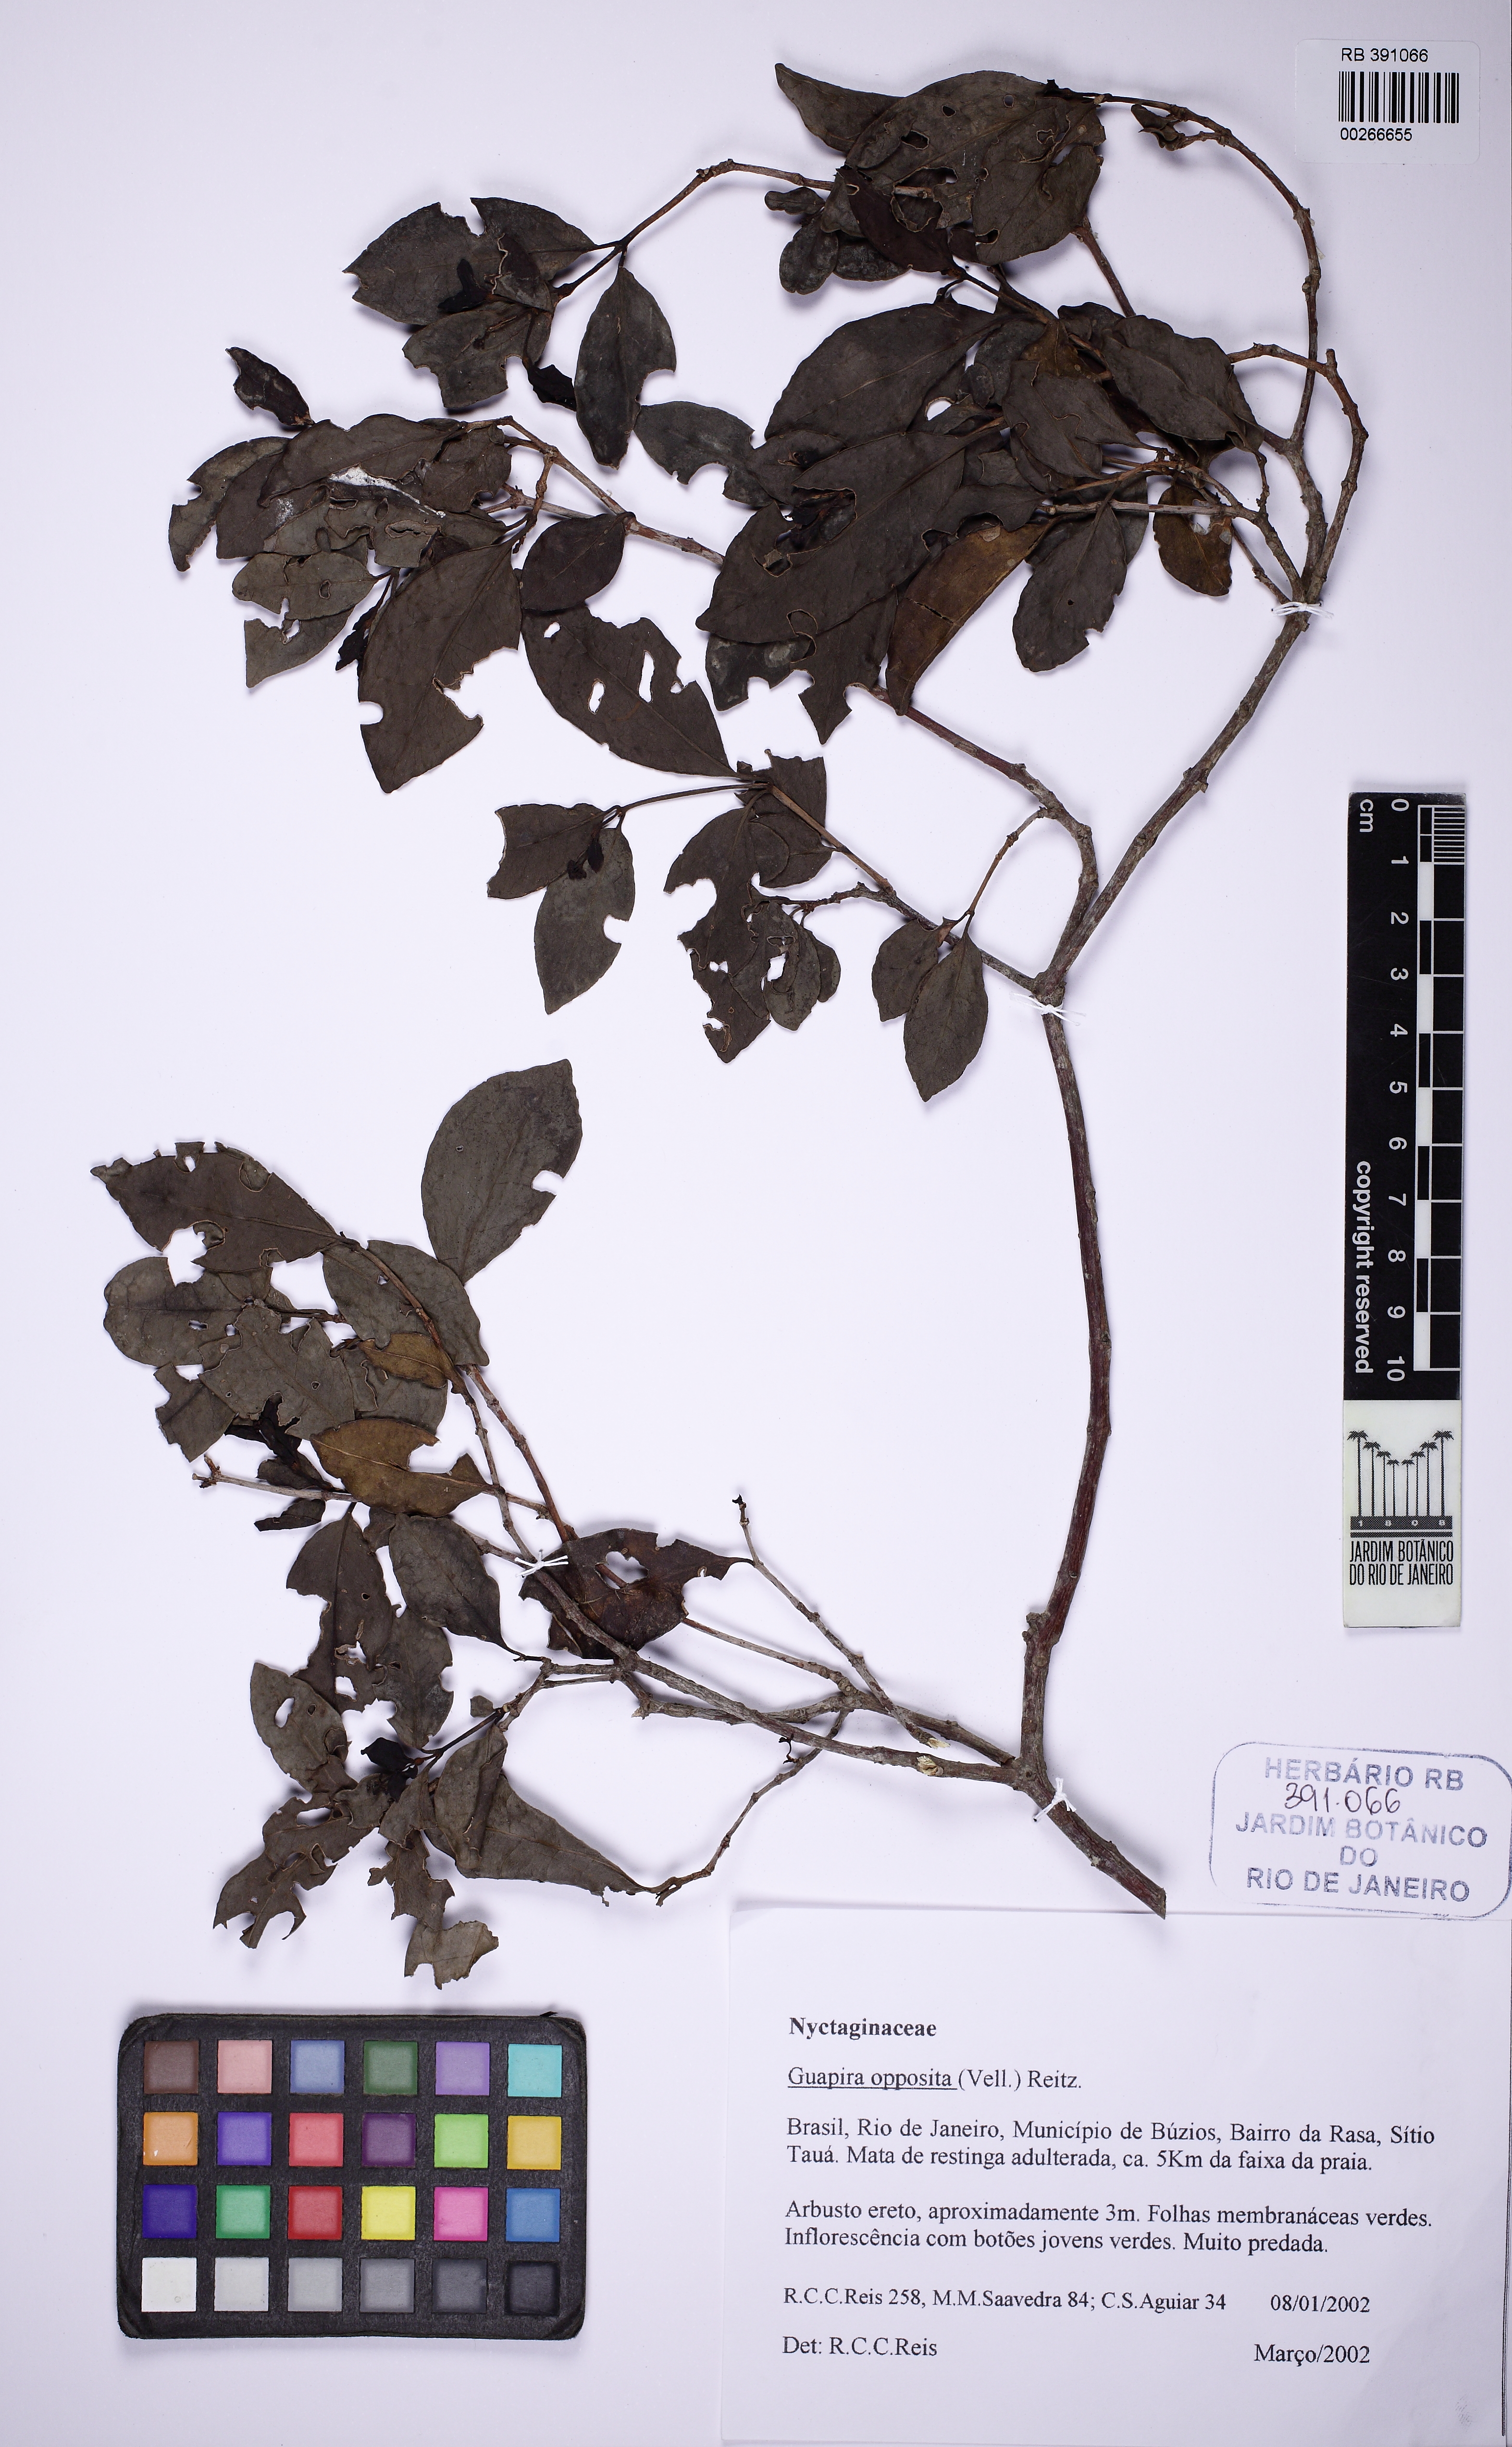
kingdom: Plantae
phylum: Tracheophyta
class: Magnoliopsida
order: Caryophyllales
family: Nyctaginaceae
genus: Guapira
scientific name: Guapira opposita
